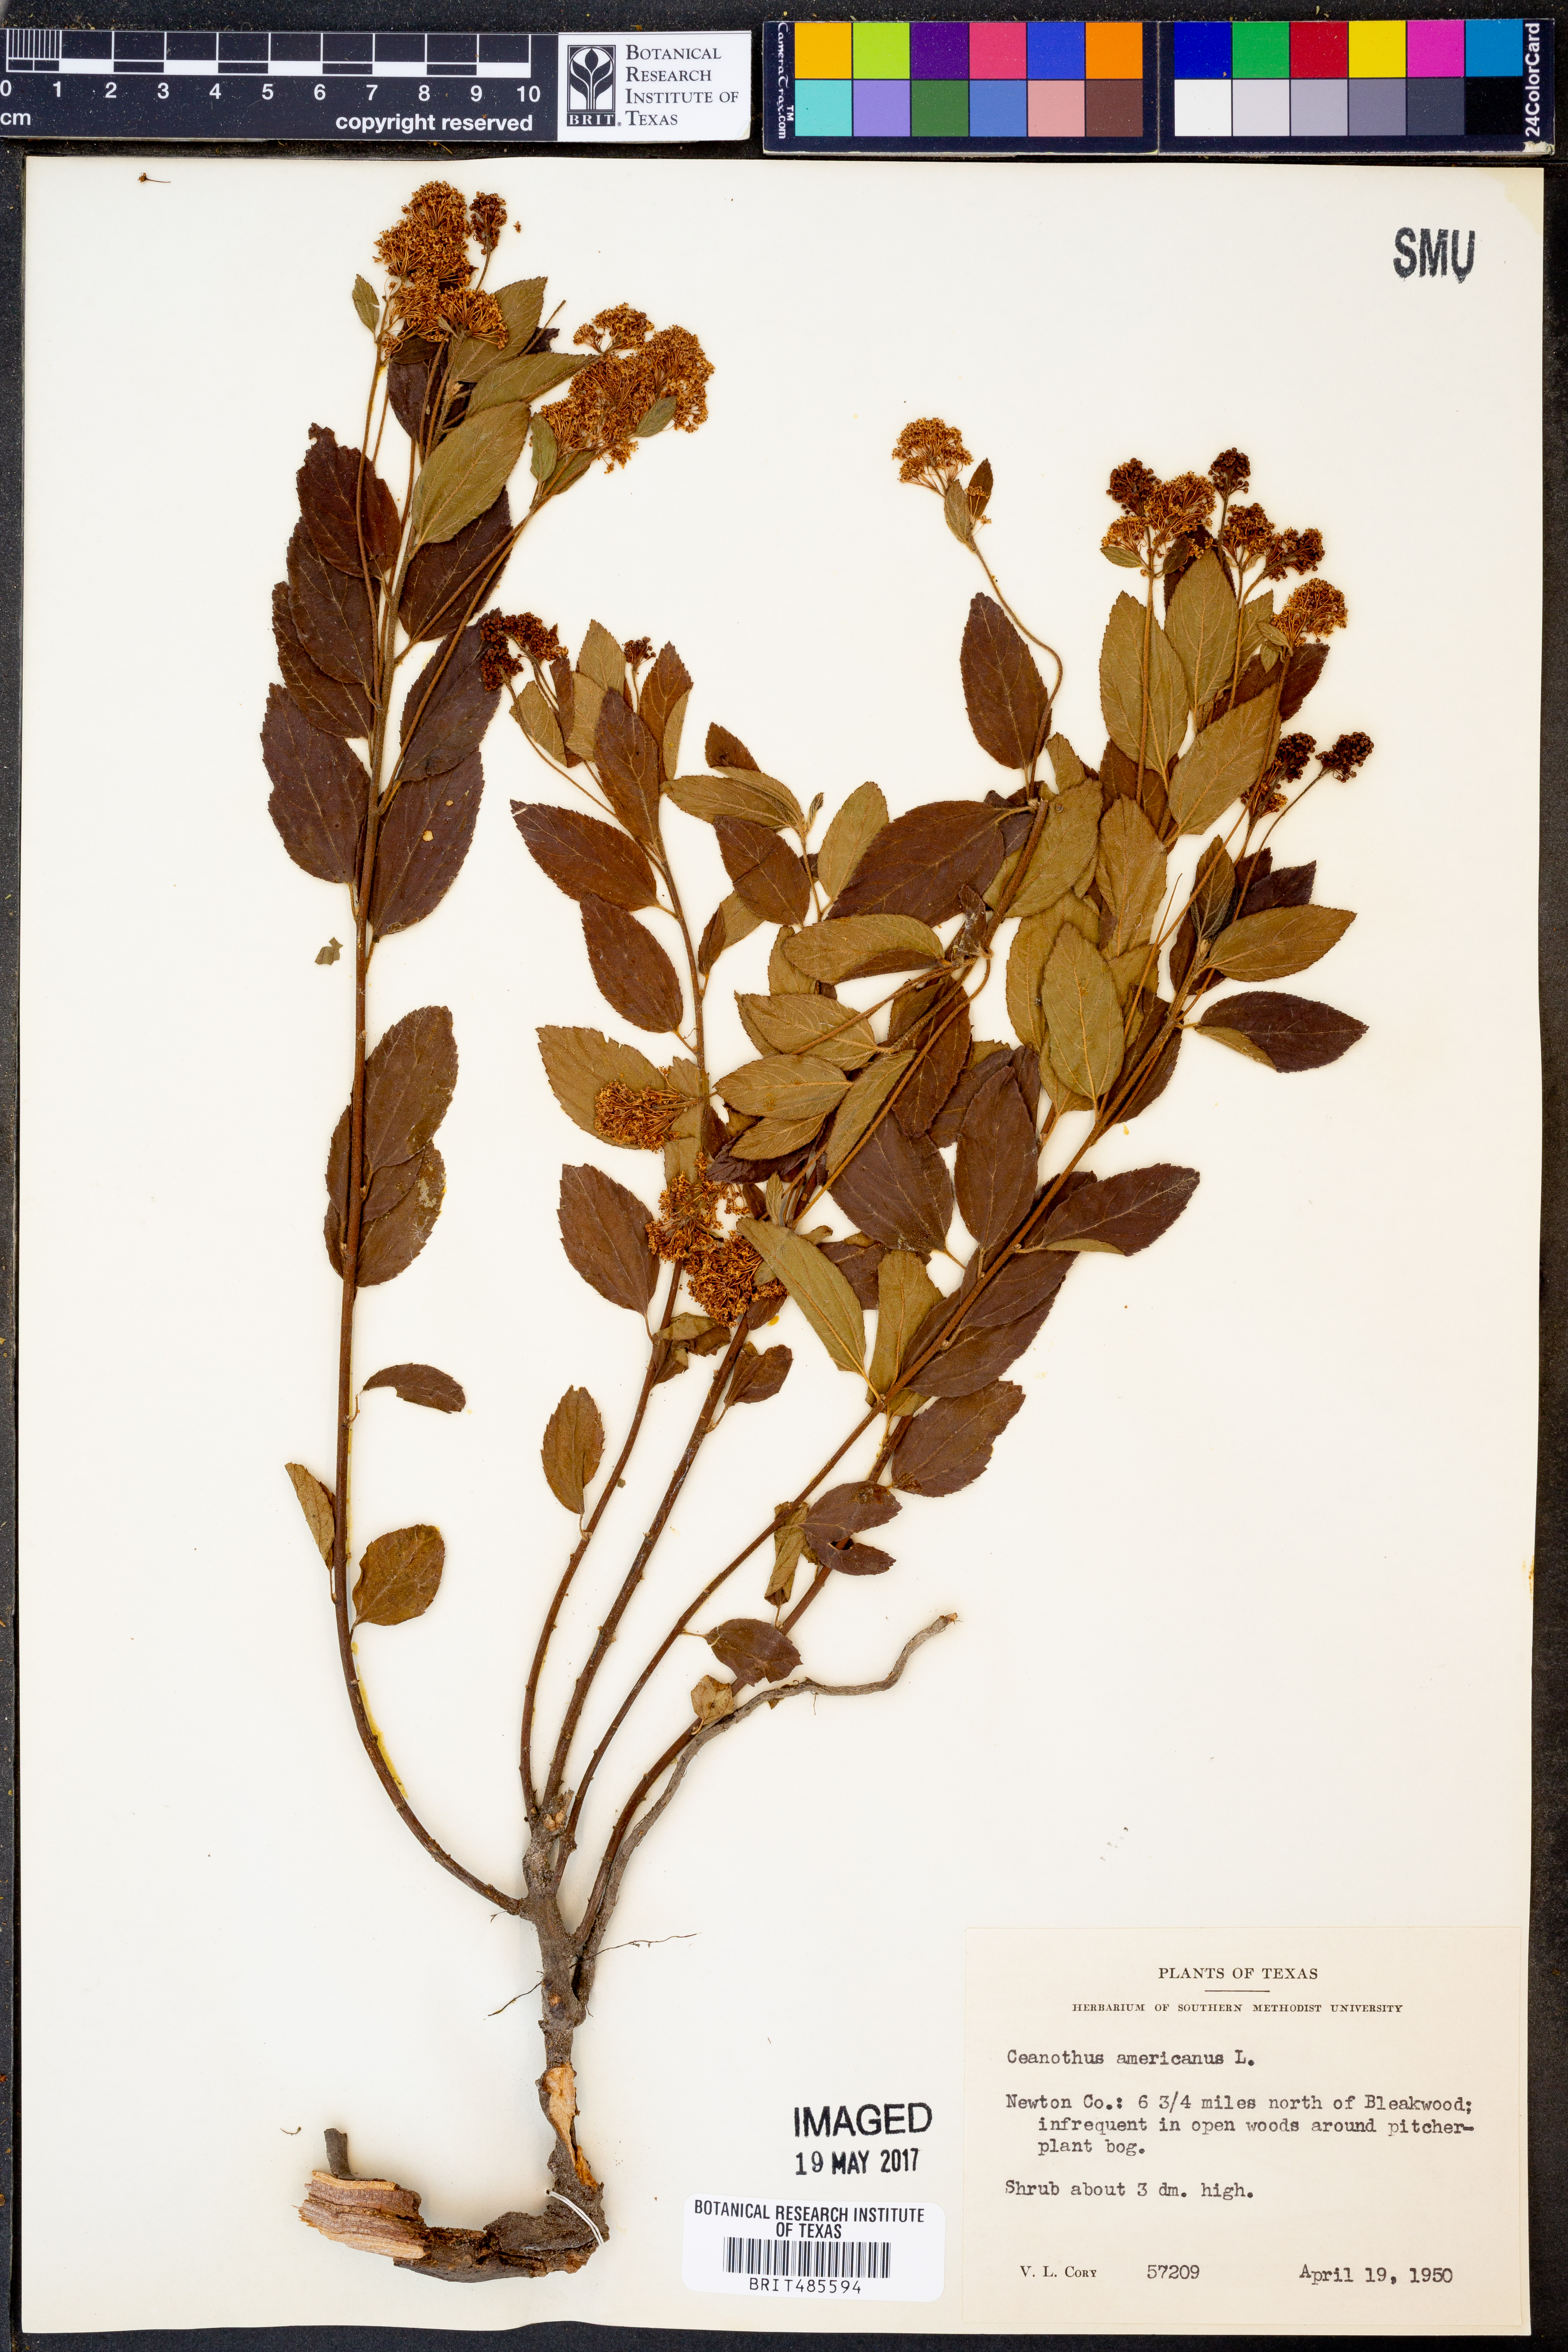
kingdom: Plantae
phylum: Tracheophyta
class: Magnoliopsida
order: Rosales
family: Rhamnaceae
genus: Ceanothus
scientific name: Ceanothus americanus
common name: Redroot
